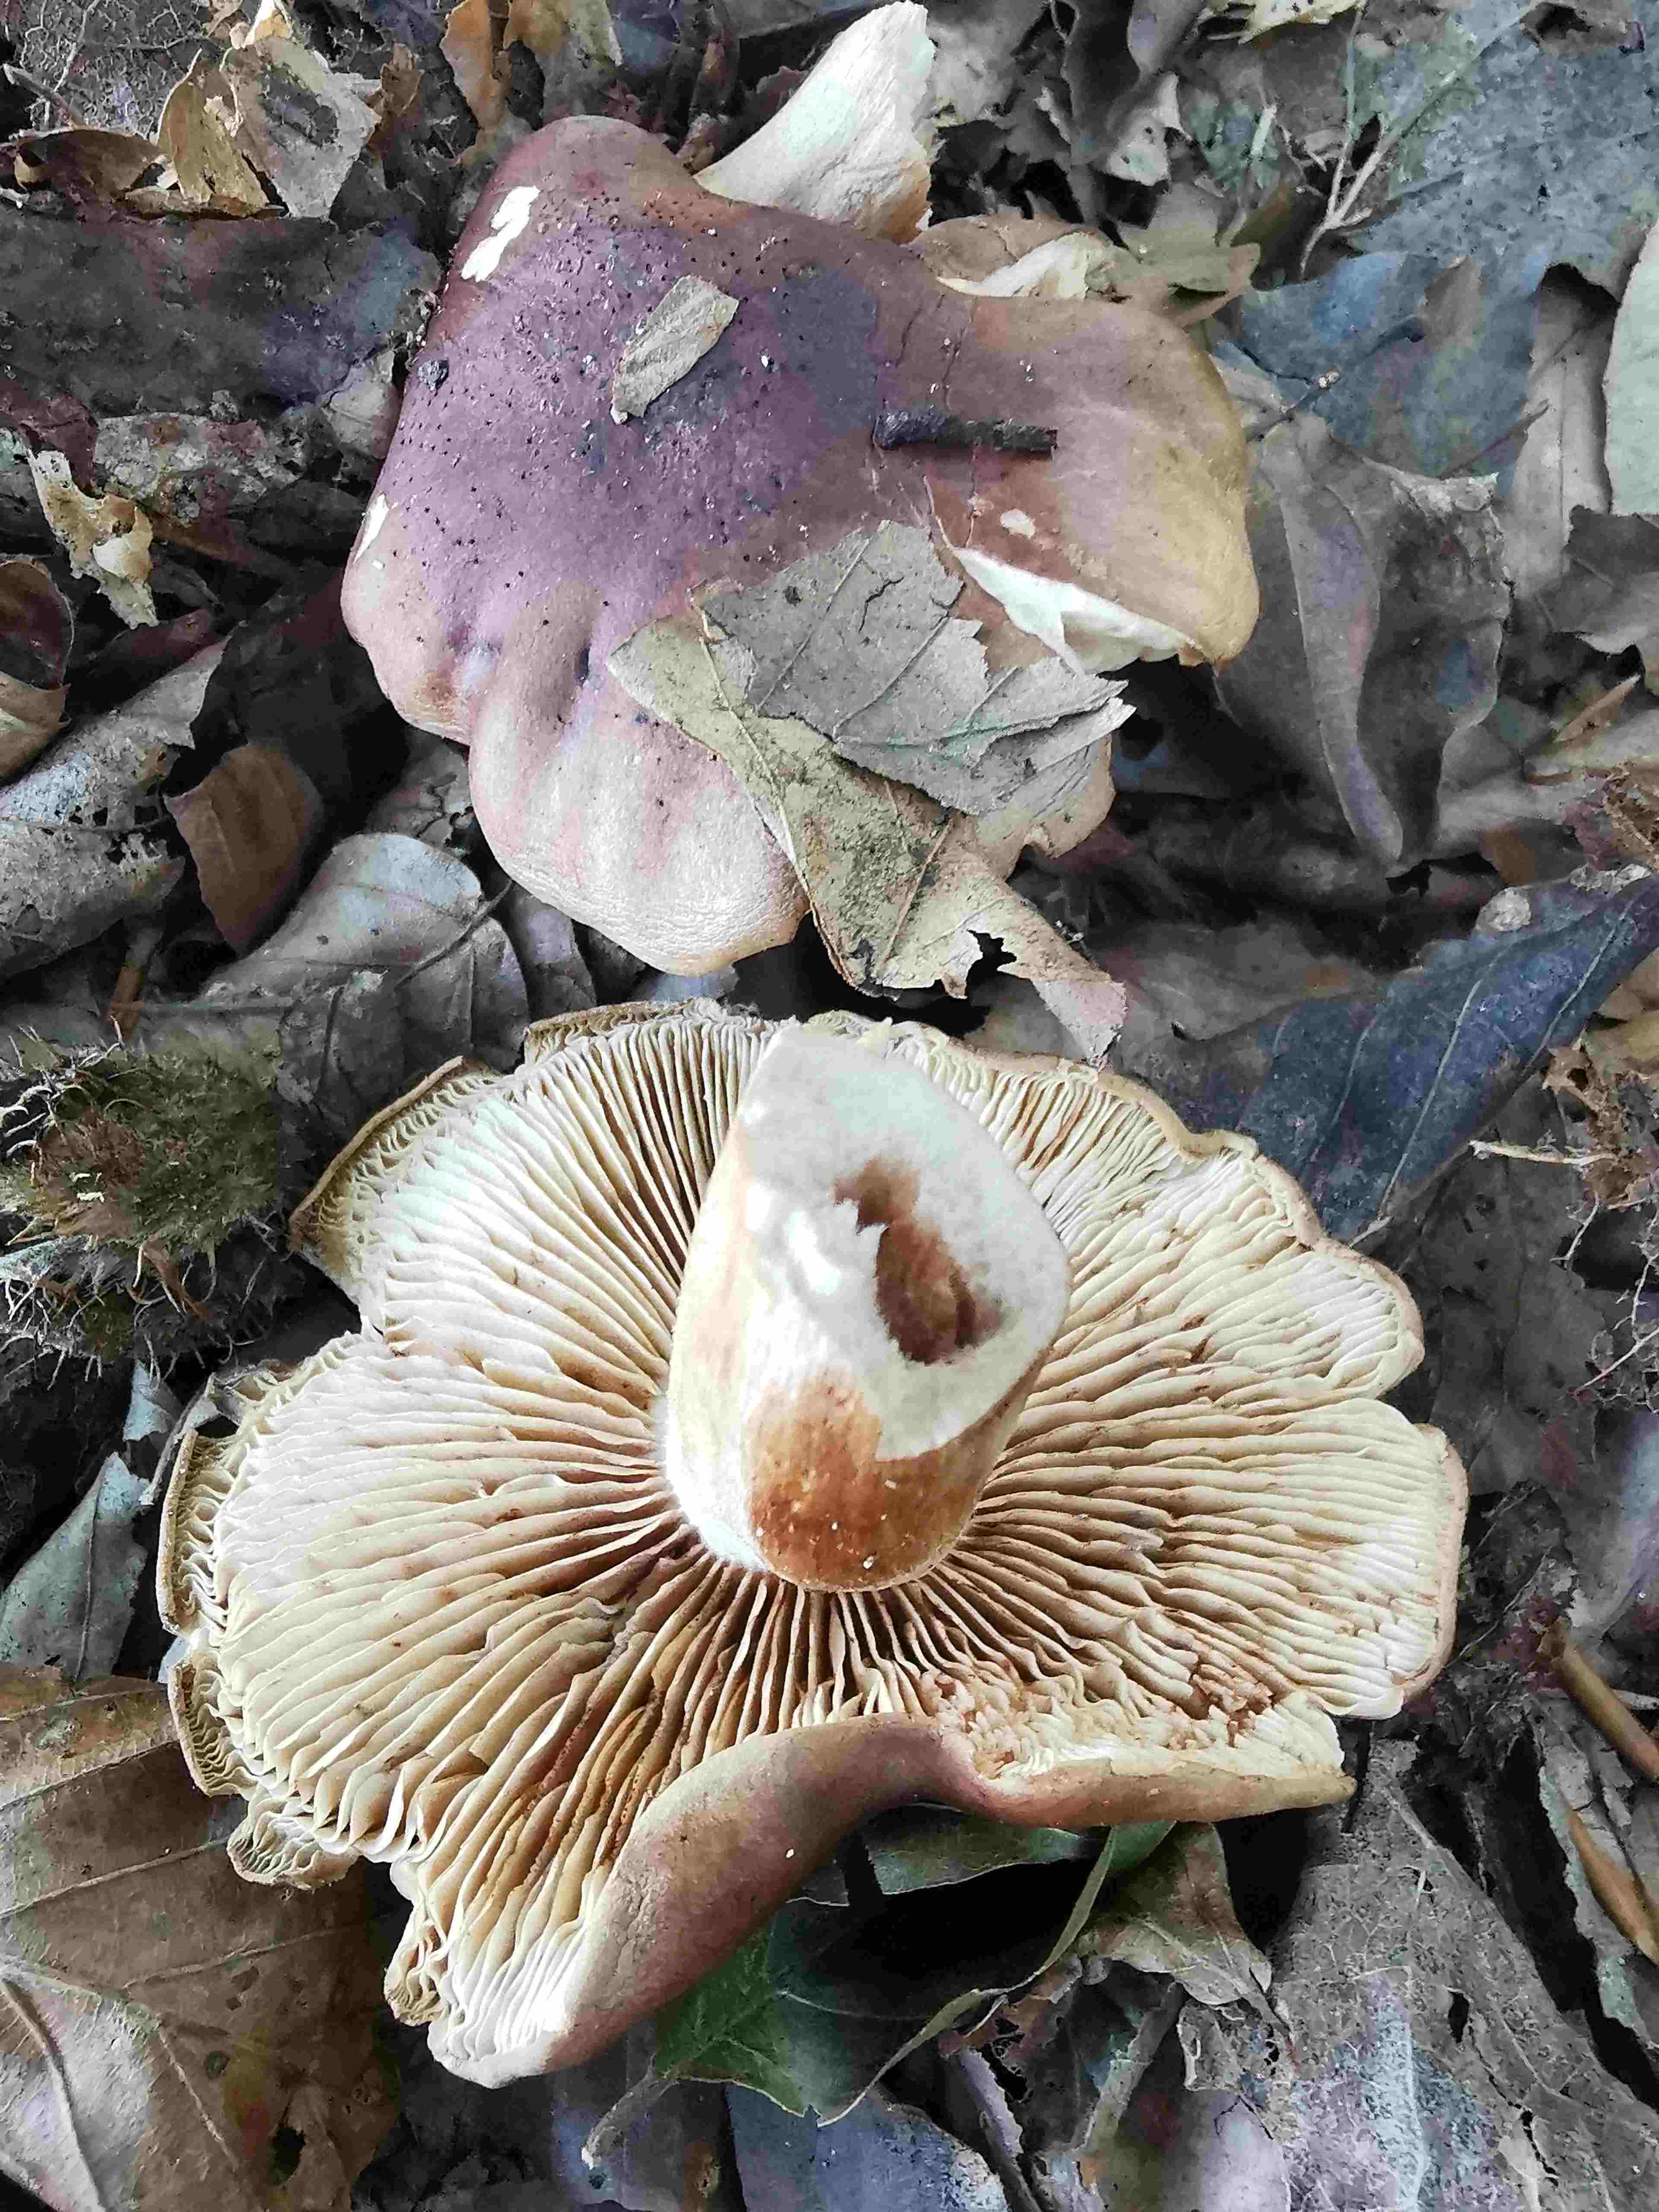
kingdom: Fungi
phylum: Basidiomycota
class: Agaricomycetes
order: Agaricales
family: Tricholomataceae
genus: Tricholoma
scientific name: Tricholoma ustale
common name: sveden ridderhat
